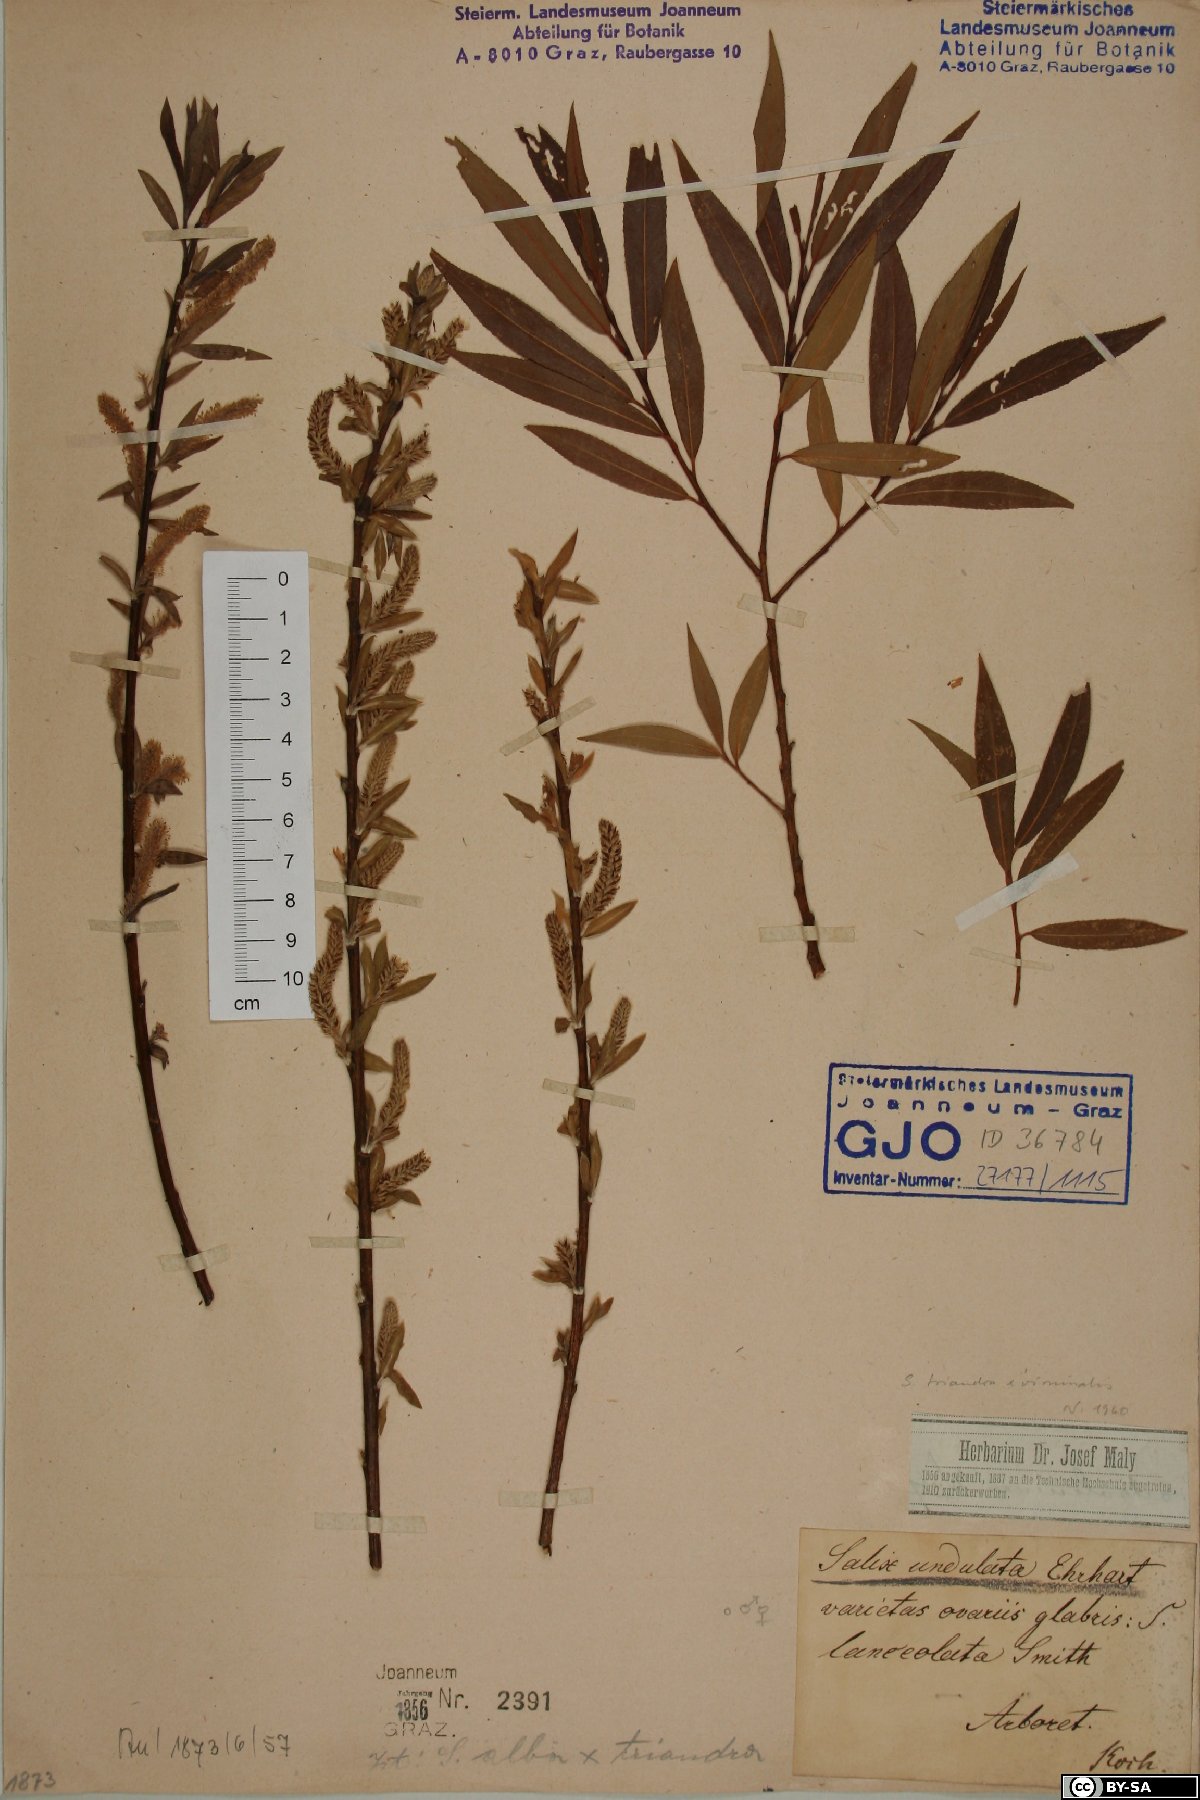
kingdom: Plantae
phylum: Tracheophyta
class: Magnoliopsida
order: Malpighiales
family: Salicaceae
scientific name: Salicaceae
